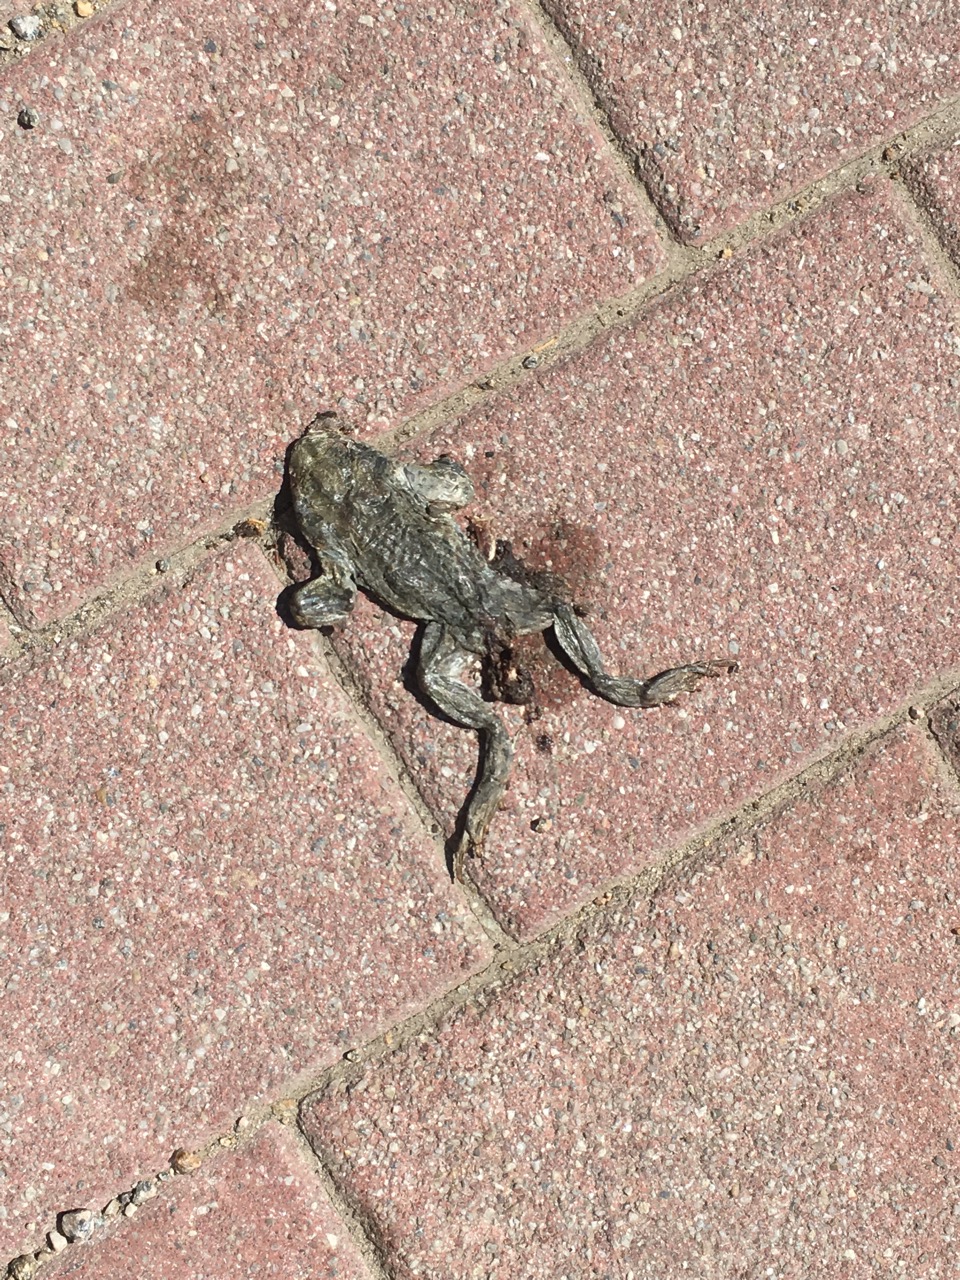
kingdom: Animalia
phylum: Chordata
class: Amphibia
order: Anura
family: Bufonidae
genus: Bufo
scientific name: Bufo bufo
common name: Common toad
